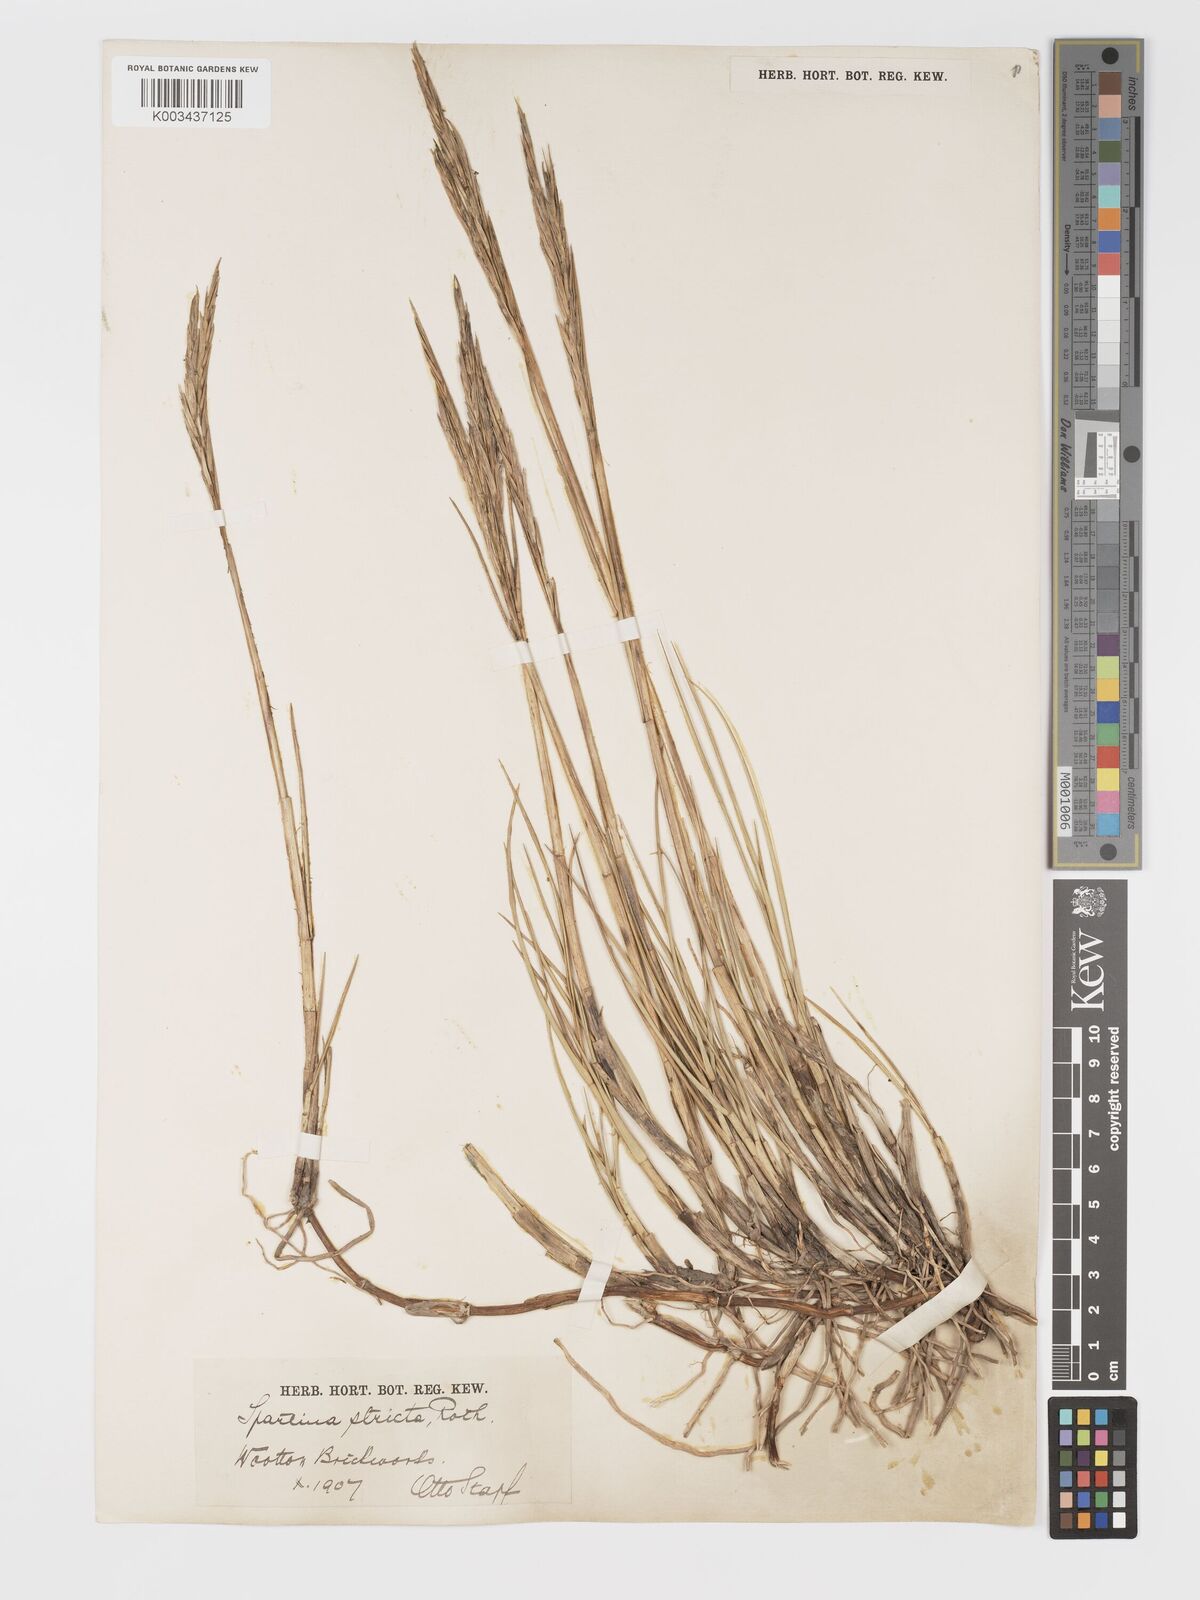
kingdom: Plantae
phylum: Tracheophyta
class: Liliopsida
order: Poales
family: Poaceae
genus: Sporobolus
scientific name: Sporobolus maritimus
